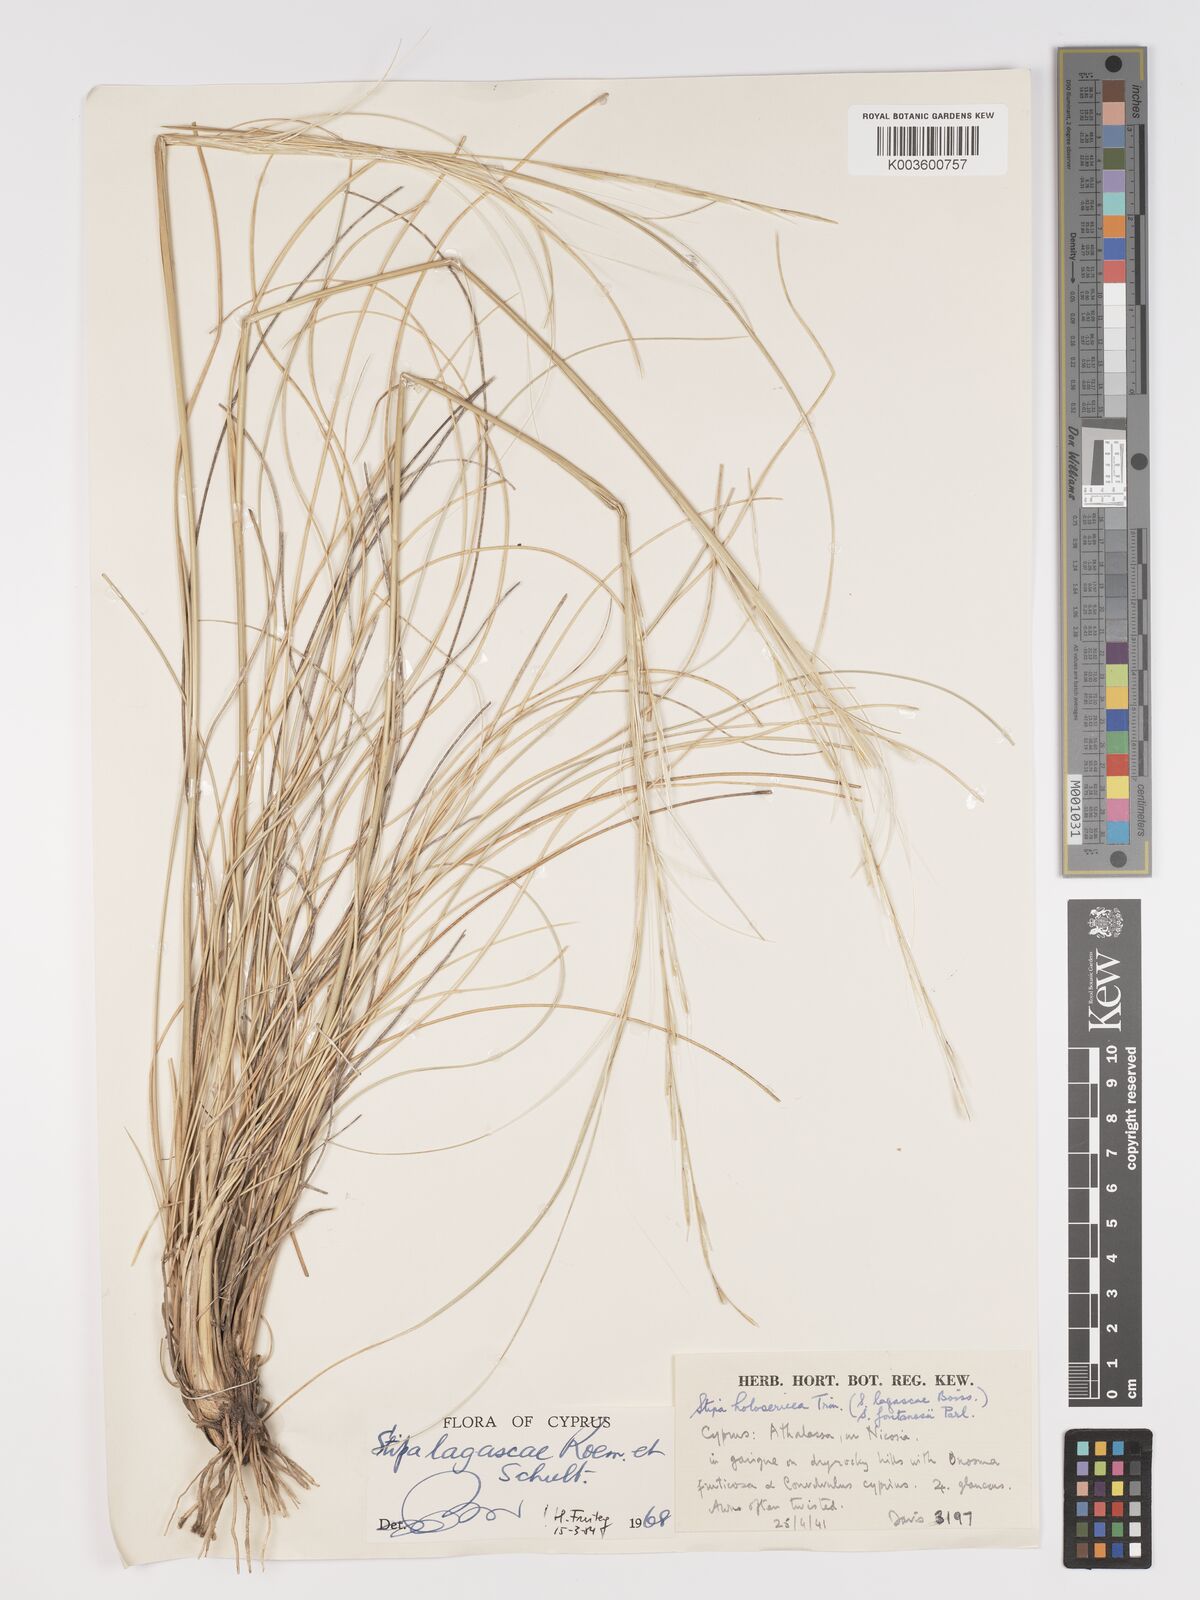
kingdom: Plantae
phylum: Tracheophyta
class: Liliopsida
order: Poales
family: Poaceae
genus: Stipa
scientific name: Stipa lagascae
